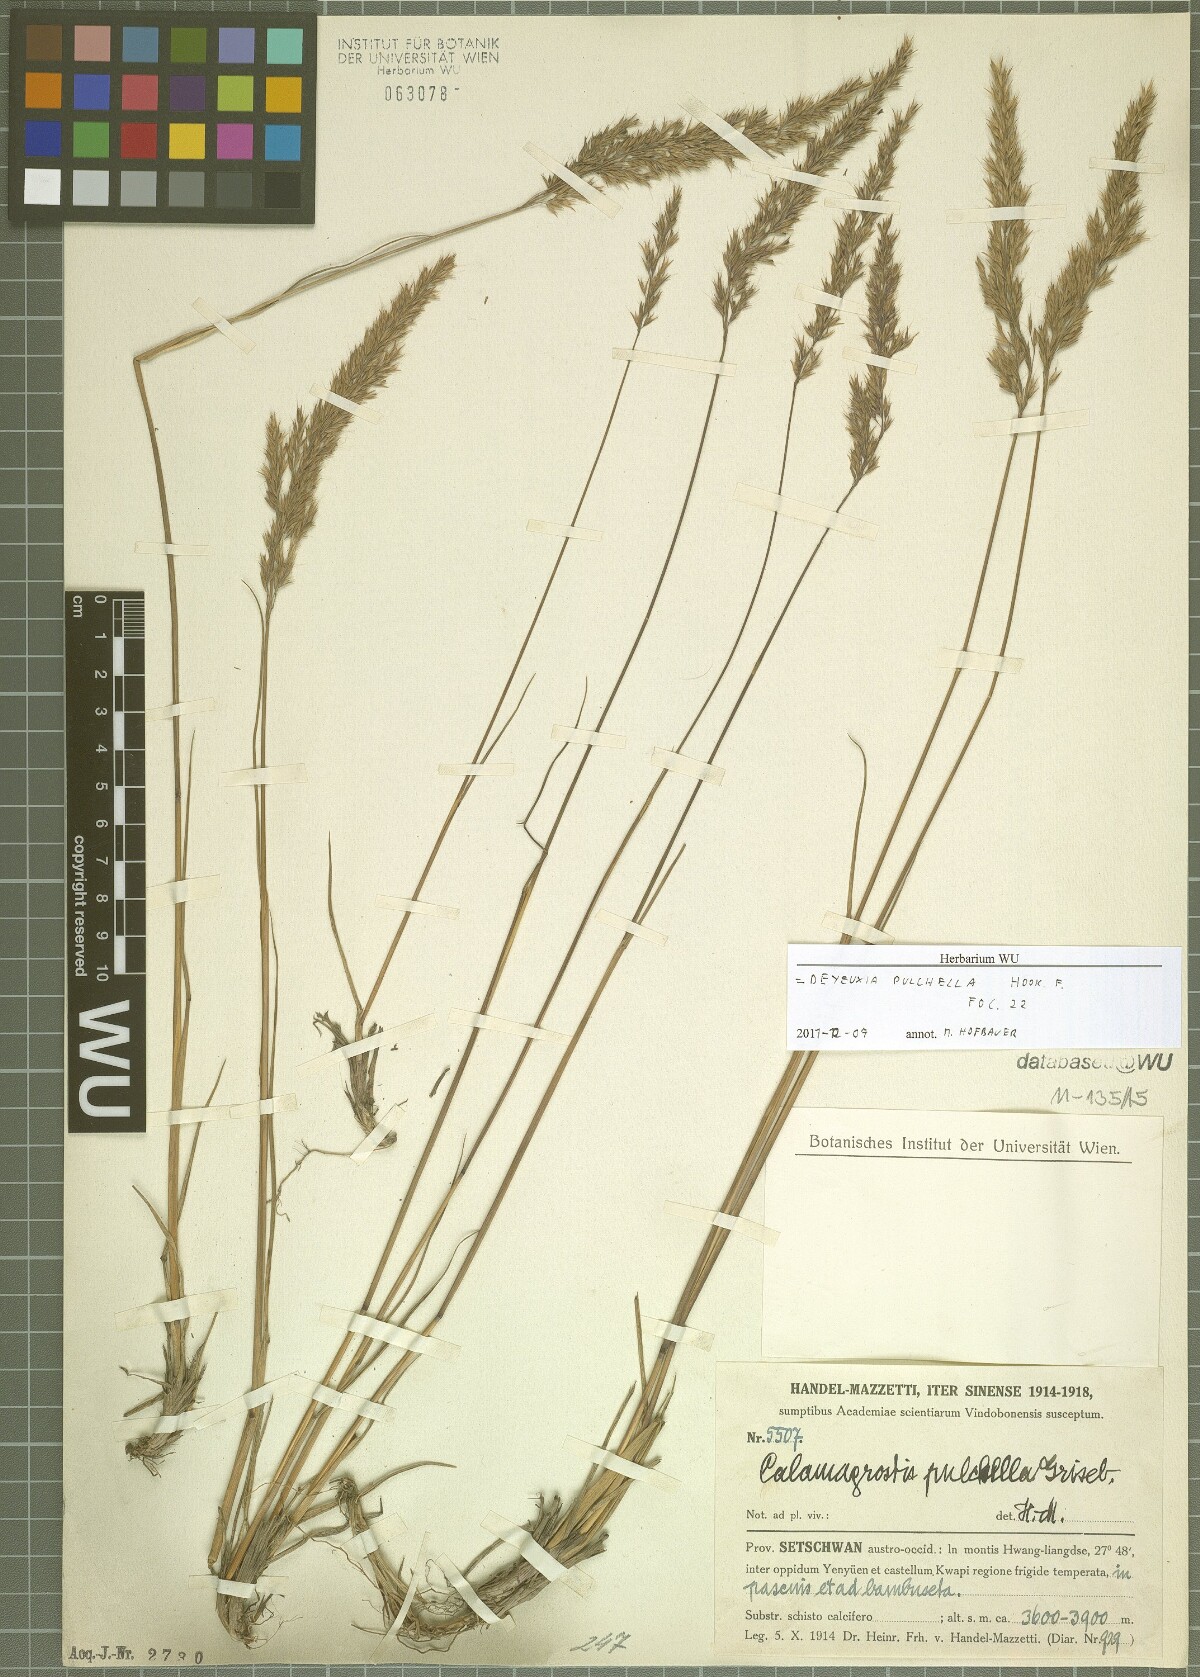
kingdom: Plantae
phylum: Tracheophyta
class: Liliopsida
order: Poales
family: Poaceae
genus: Calamagrostis
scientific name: Calamagrostis lahulensis
